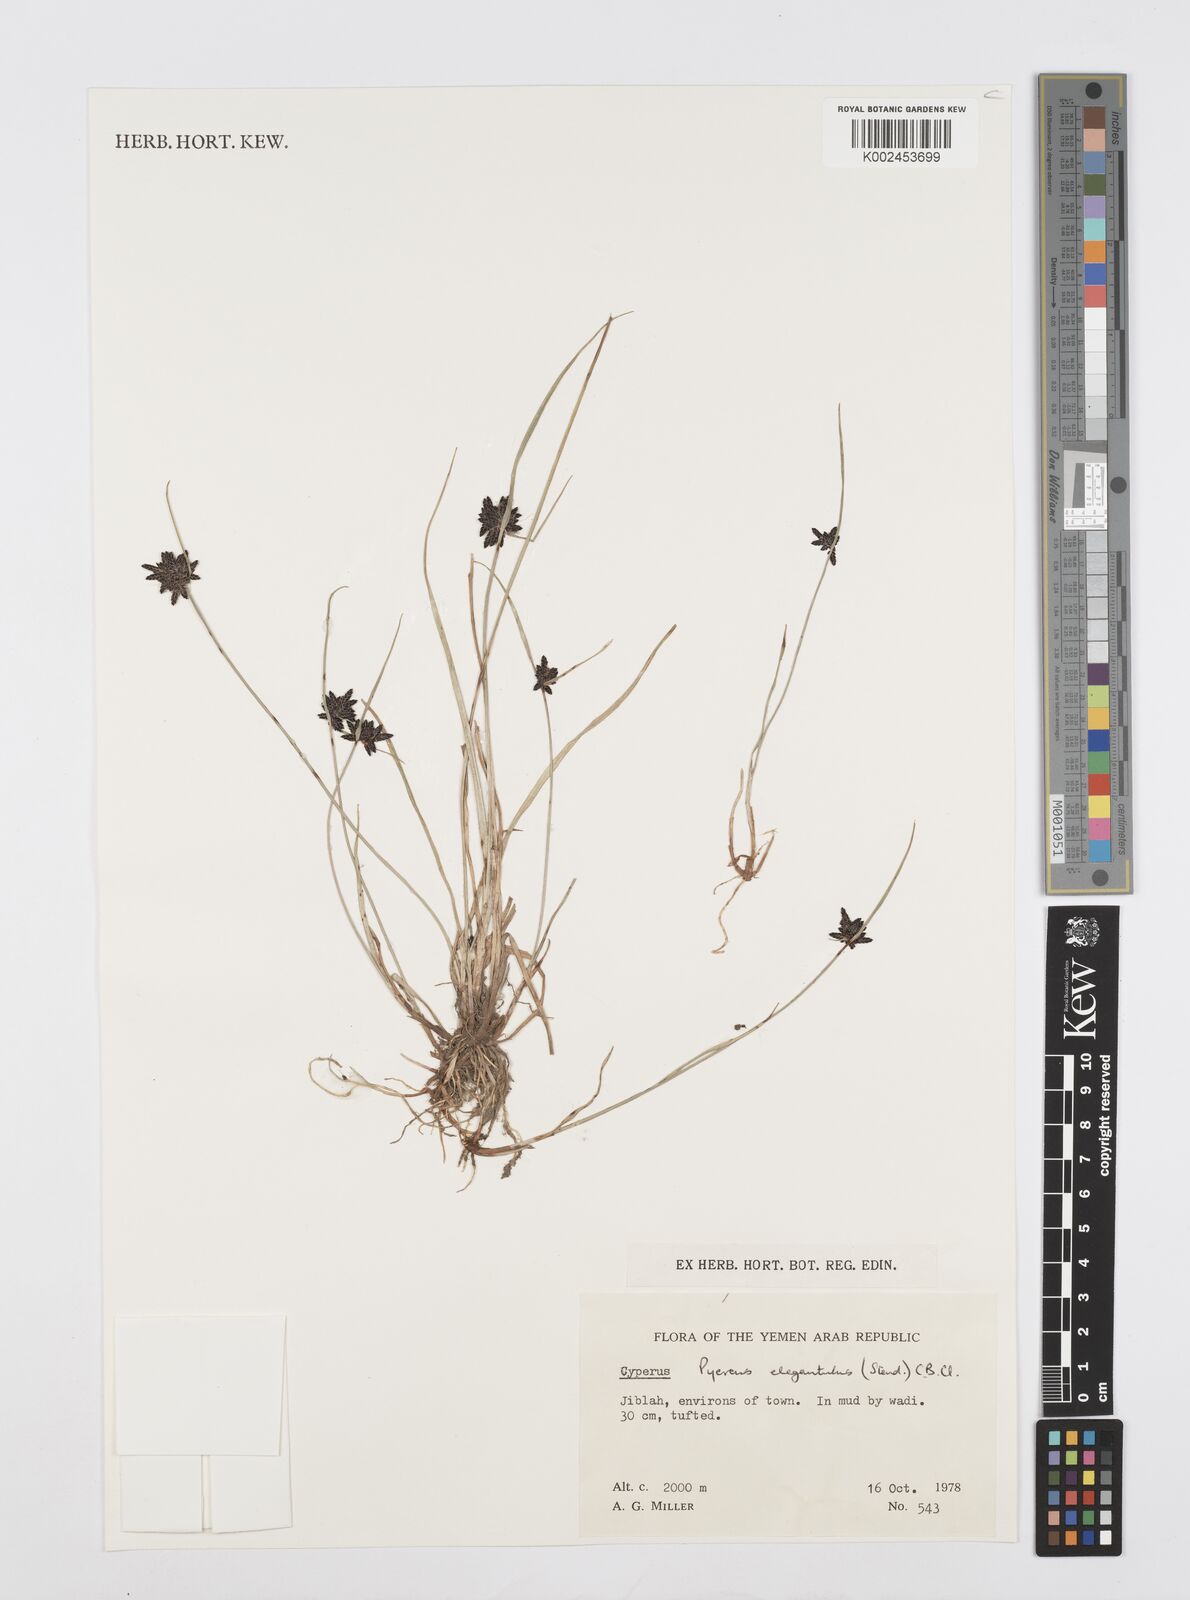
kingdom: Plantae
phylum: Tracheophyta
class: Liliopsida
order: Poales
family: Cyperaceae
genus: Cyperus
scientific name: Cyperus elegantulus
